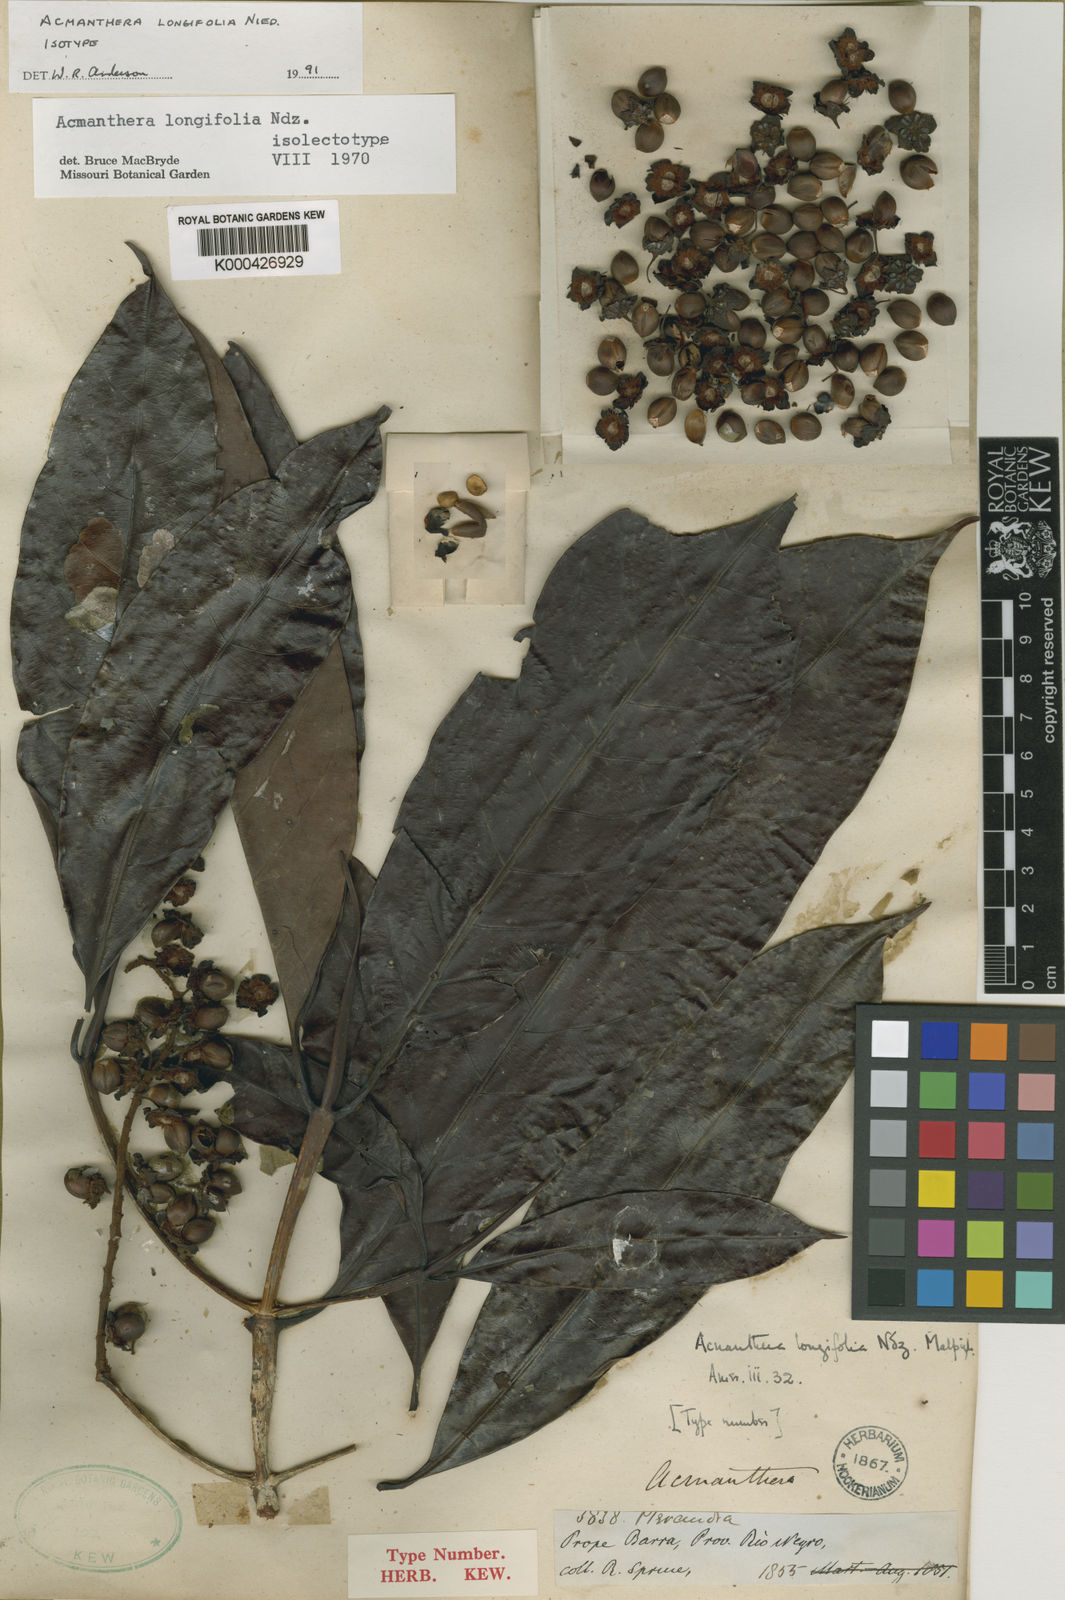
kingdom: Plantae
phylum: Tracheophyta
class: Magnoliopsida
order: Malpighiales
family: Malpighiaceae
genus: Acmanthera
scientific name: Acmanthera longifolia
